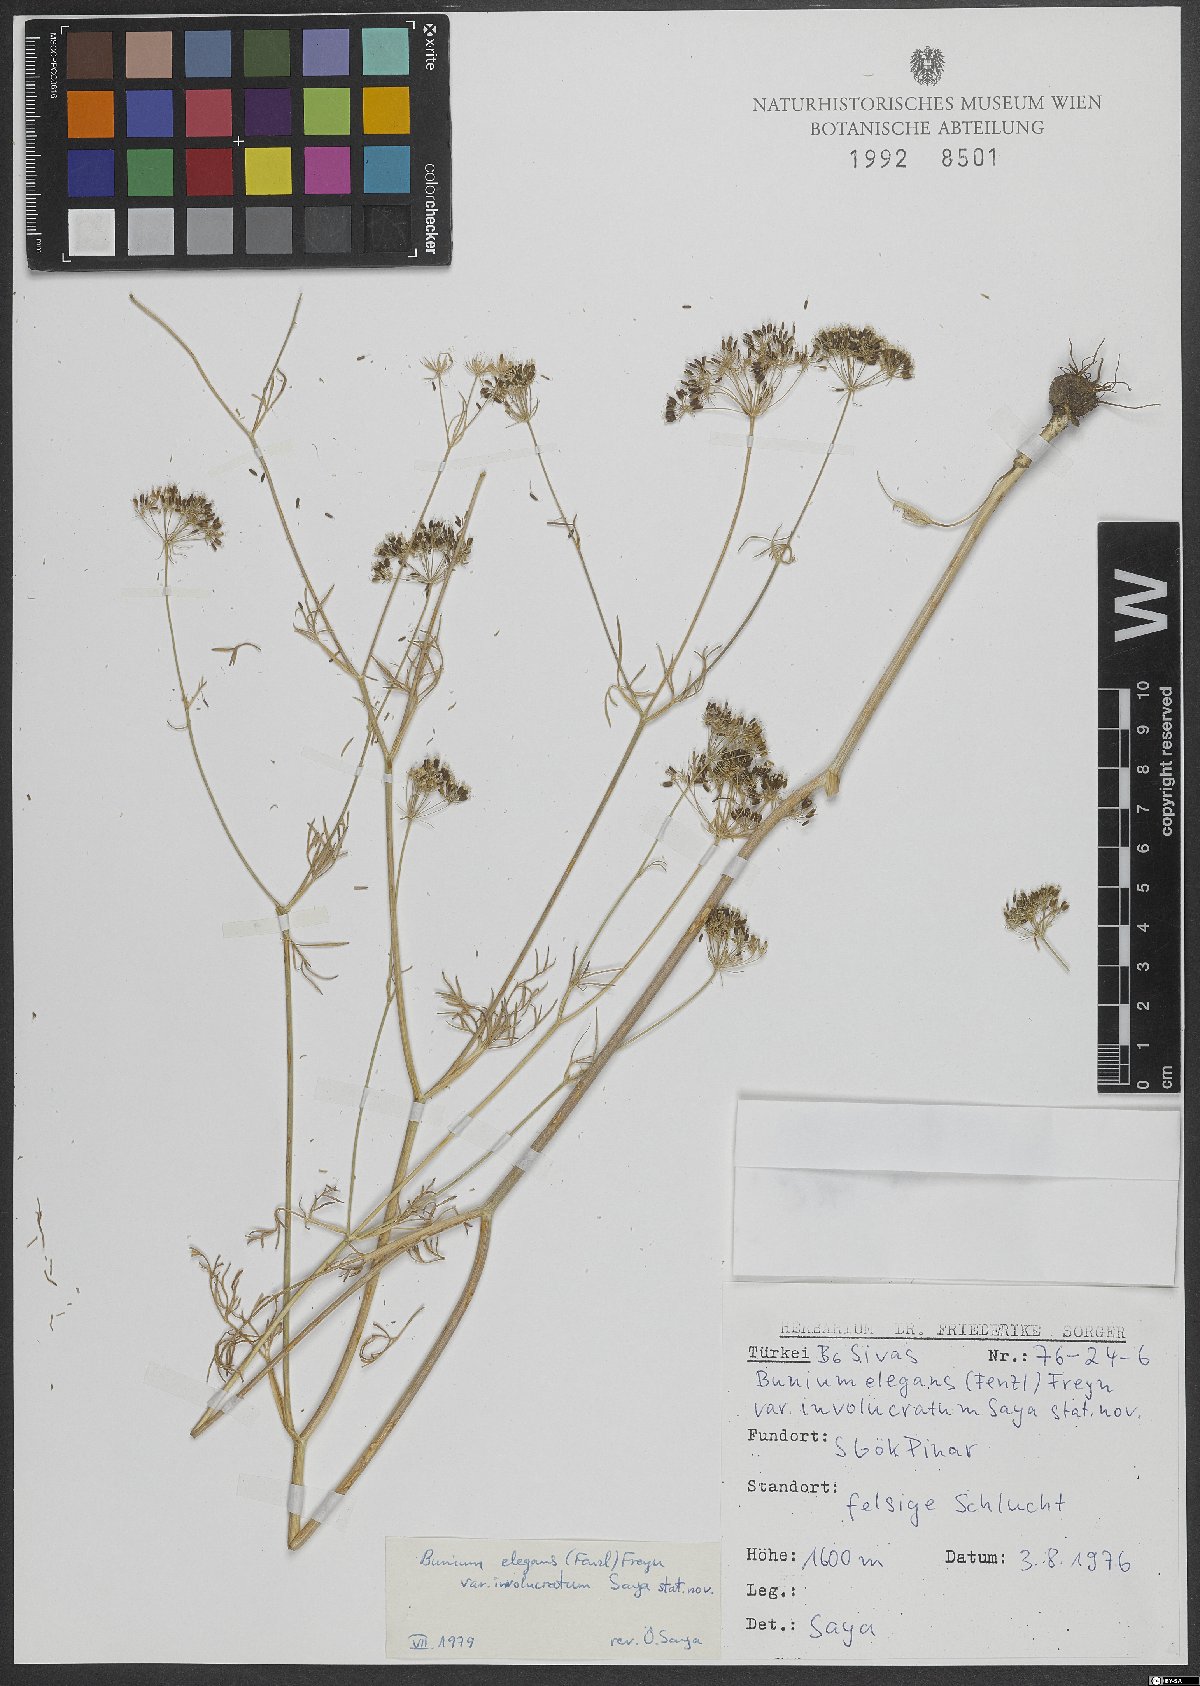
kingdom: Plantae
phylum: Tracheophyta
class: Magnoliopsida
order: Apiales
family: Apiaceae
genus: Bunium
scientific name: Bunium elegans
